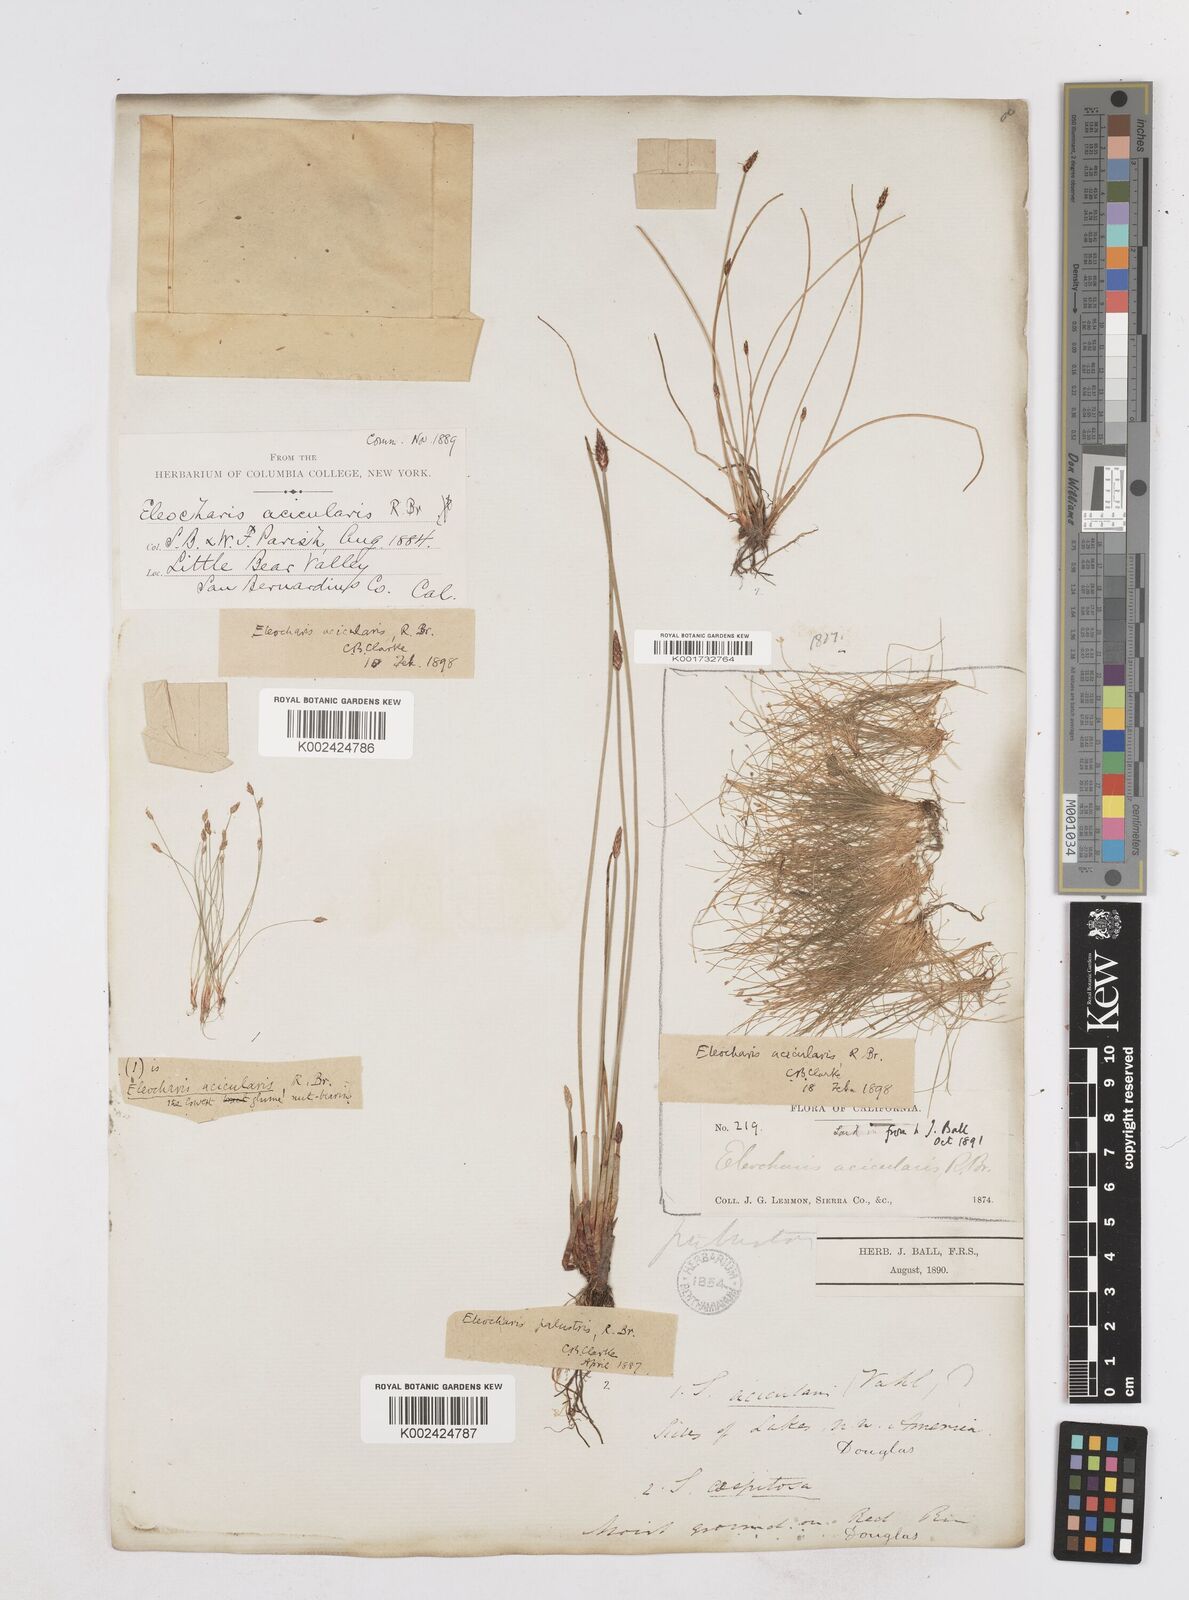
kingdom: Plantae
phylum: Tracheophyta
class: Liliopsida
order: Poales
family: Cyperaceae
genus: Eleocharis
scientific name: Eleocharis acicularis
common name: Needle spike-rush
